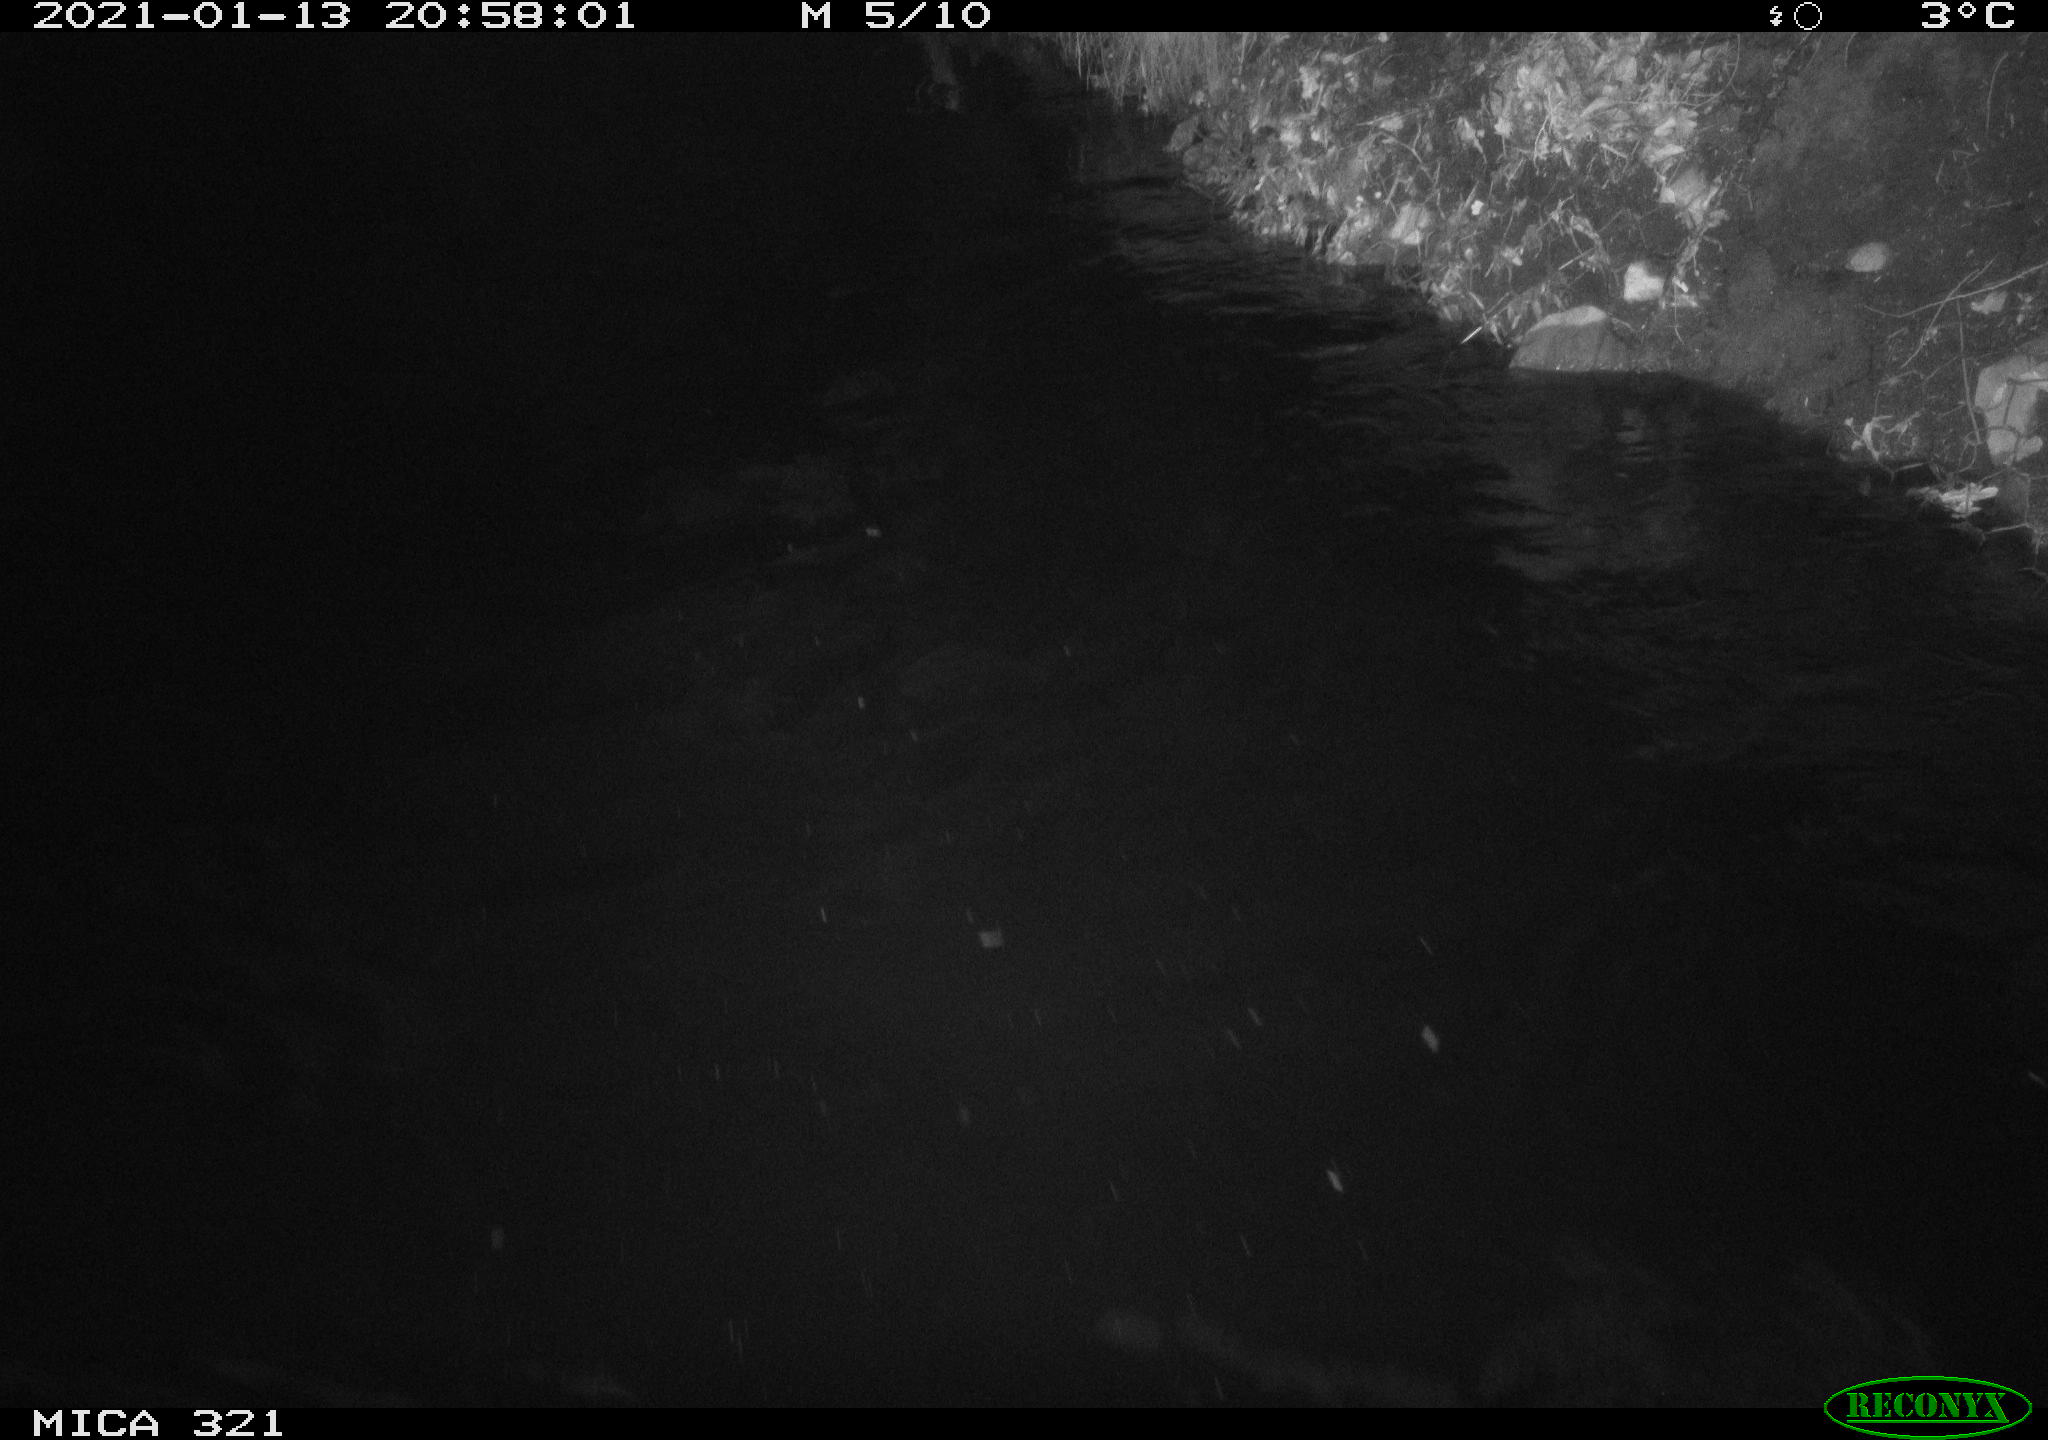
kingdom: Animalia
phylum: Chordata
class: Aves
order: Anseriformes
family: Anatidae
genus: Anas
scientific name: Anas platyrhynchos
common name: Mallard
